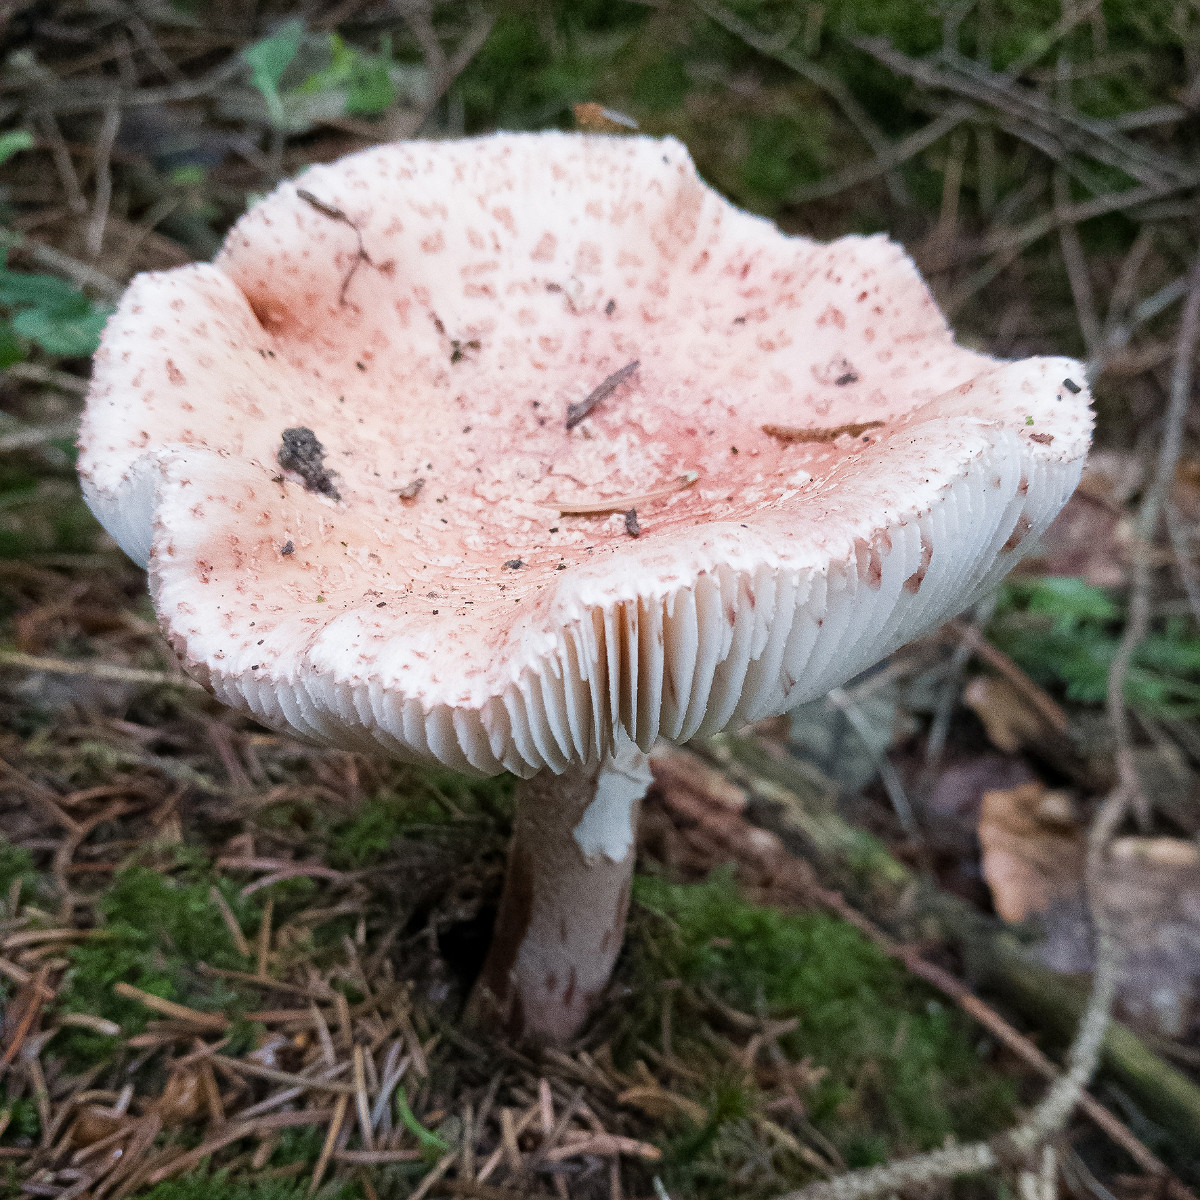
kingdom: Fungi
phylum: Basidiomycota
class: Agaricomycetes
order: Agaricales
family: Amanitaceae
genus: Amanita
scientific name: Amanita rubescens
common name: rødmende fluesvamp
